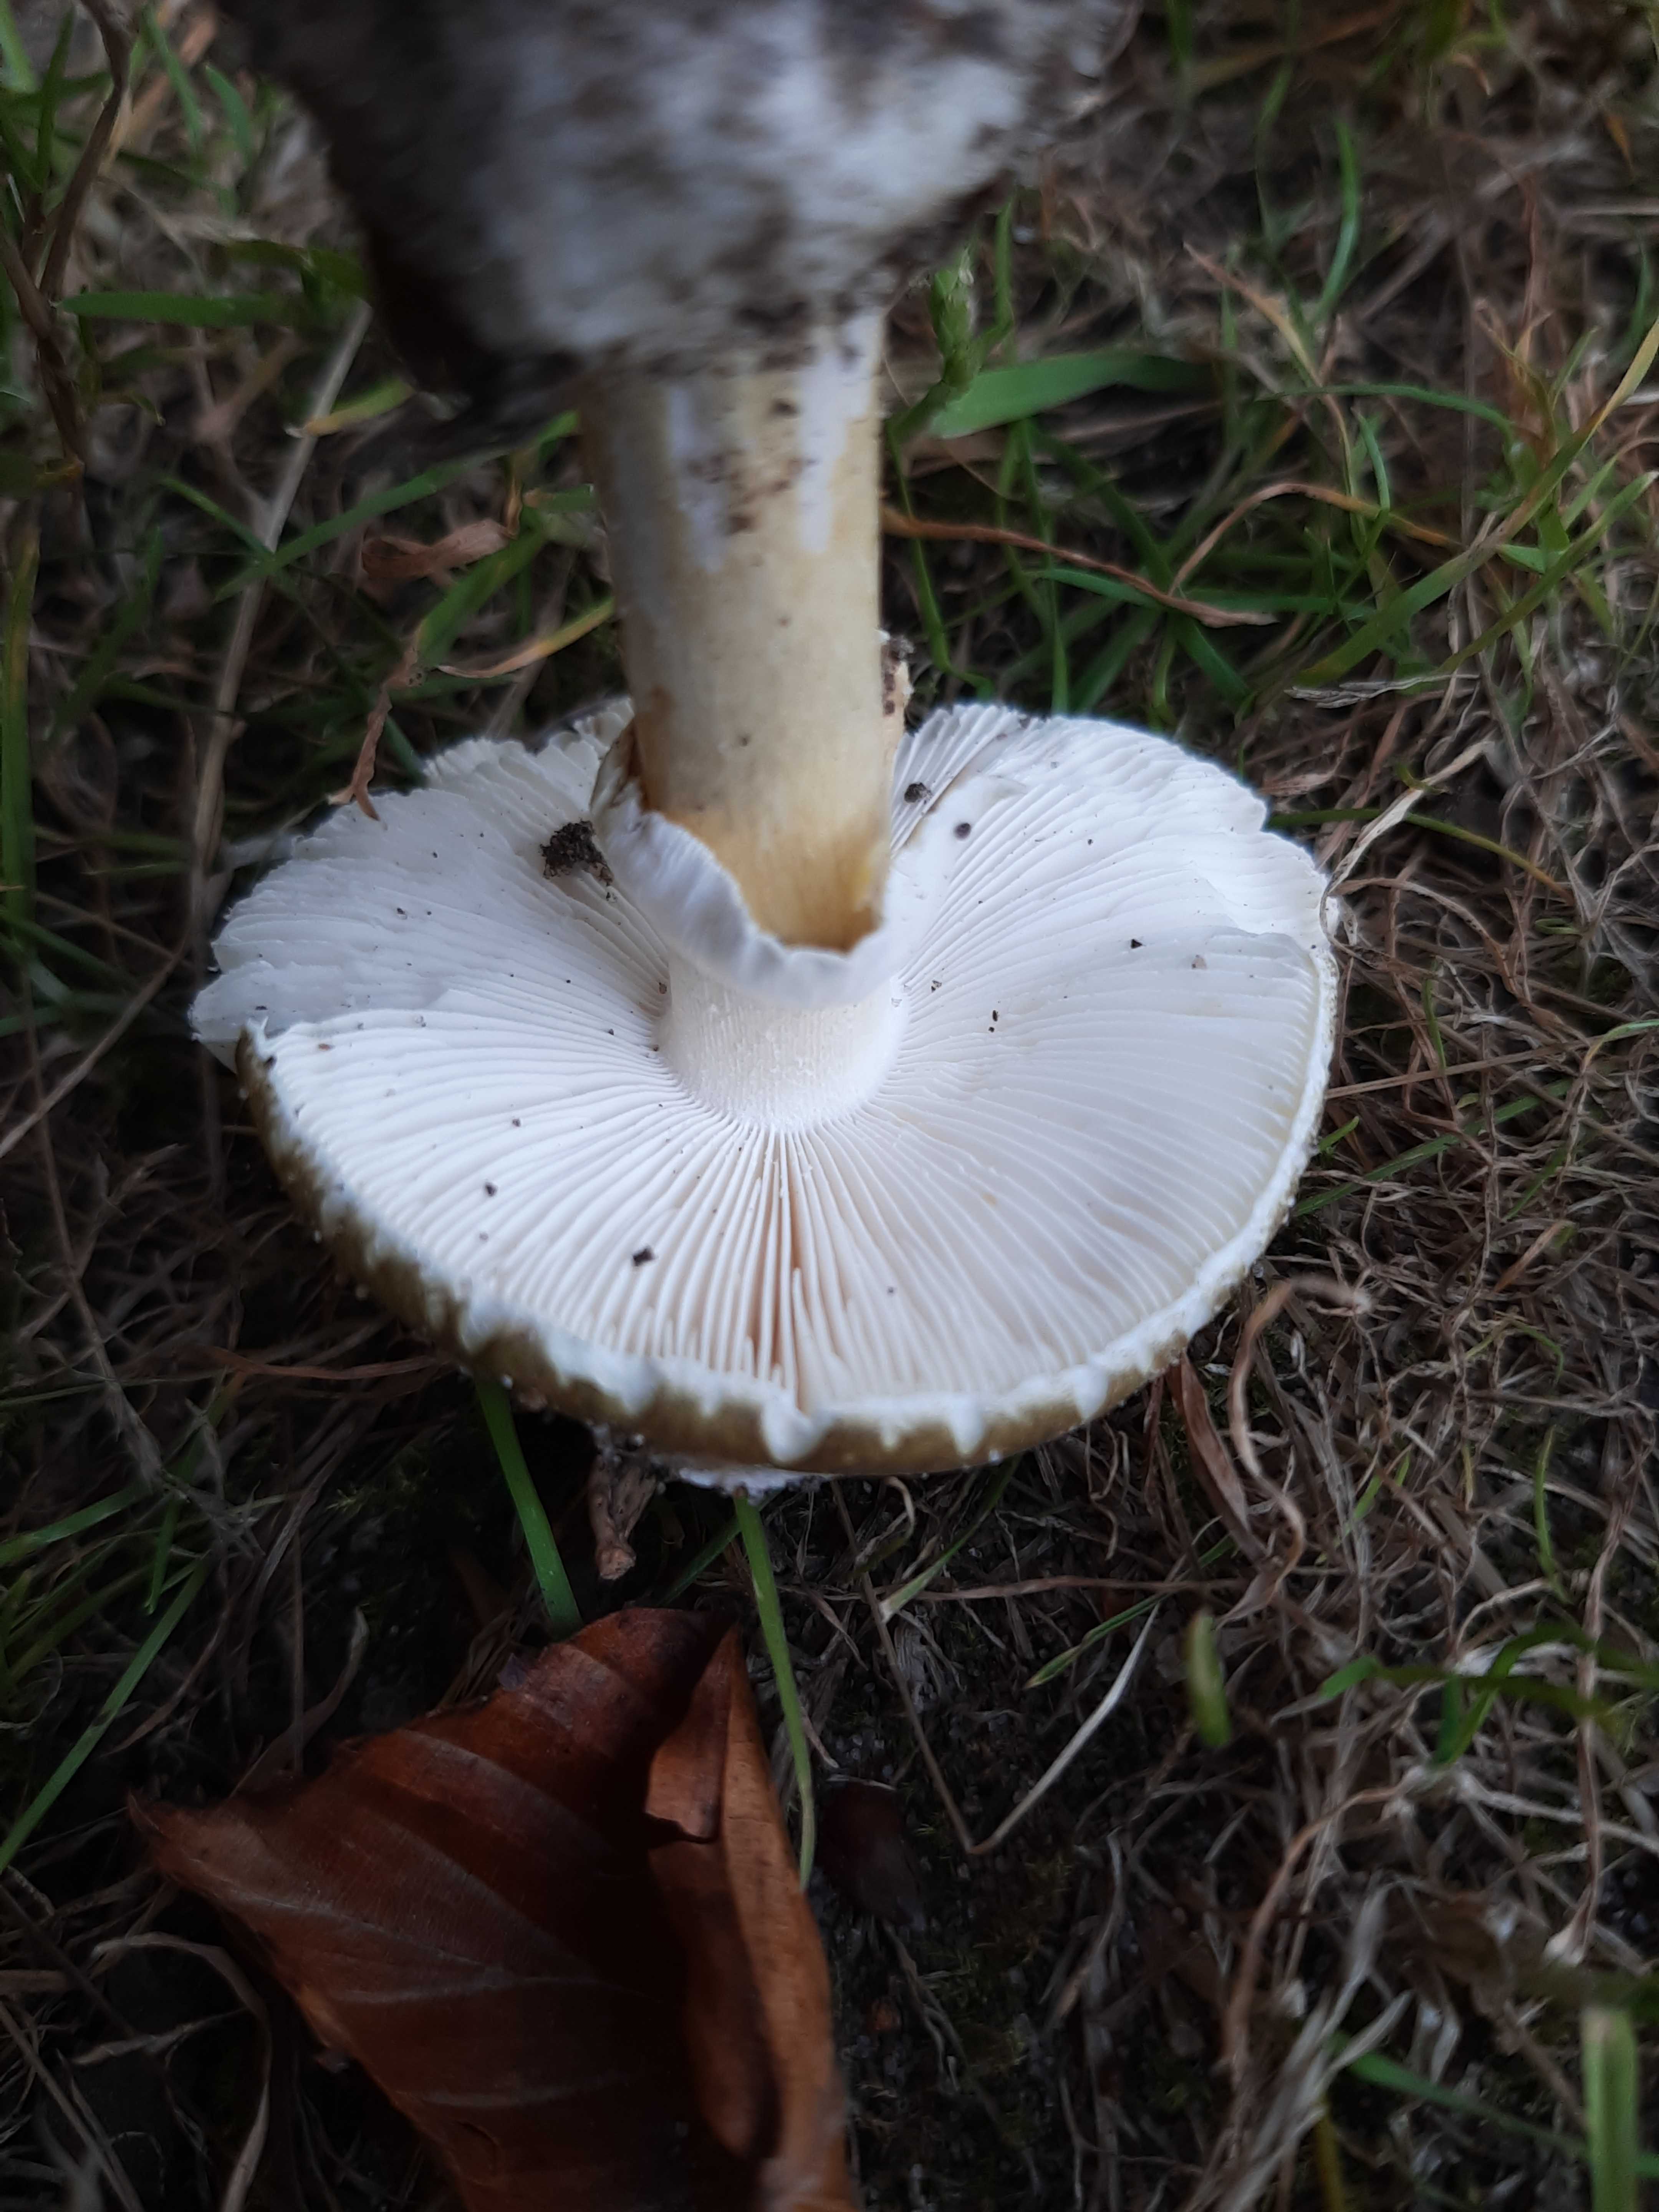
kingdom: Fungi
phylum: Basidiomycota
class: Agaricomycetes
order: Agaricales
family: Amanitaceae
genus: Amanita
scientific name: Amanita phalloides
